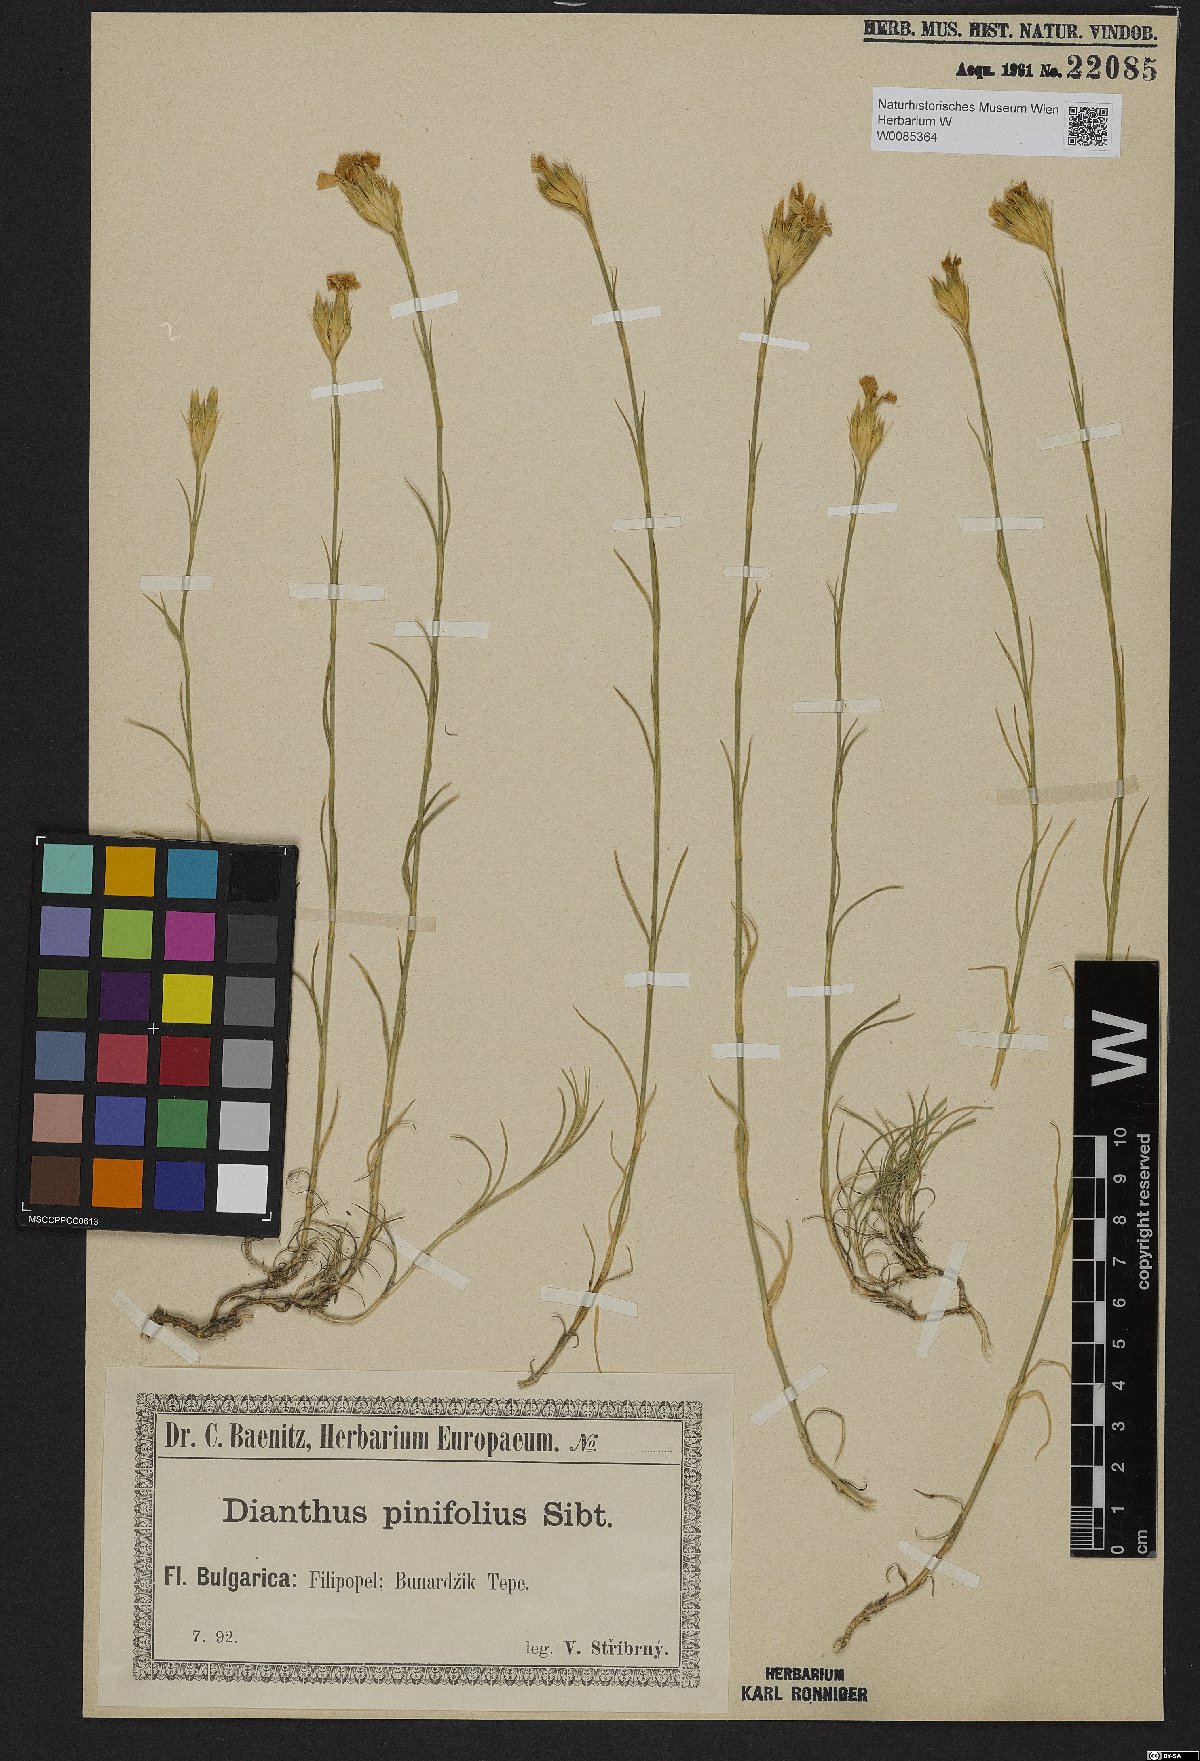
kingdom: Plantae
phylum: Tracheophyta
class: Magnoliopsida
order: Caryophyllales
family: Caryophyllaceae
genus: Dianthus
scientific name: Dianthus pinifolius
